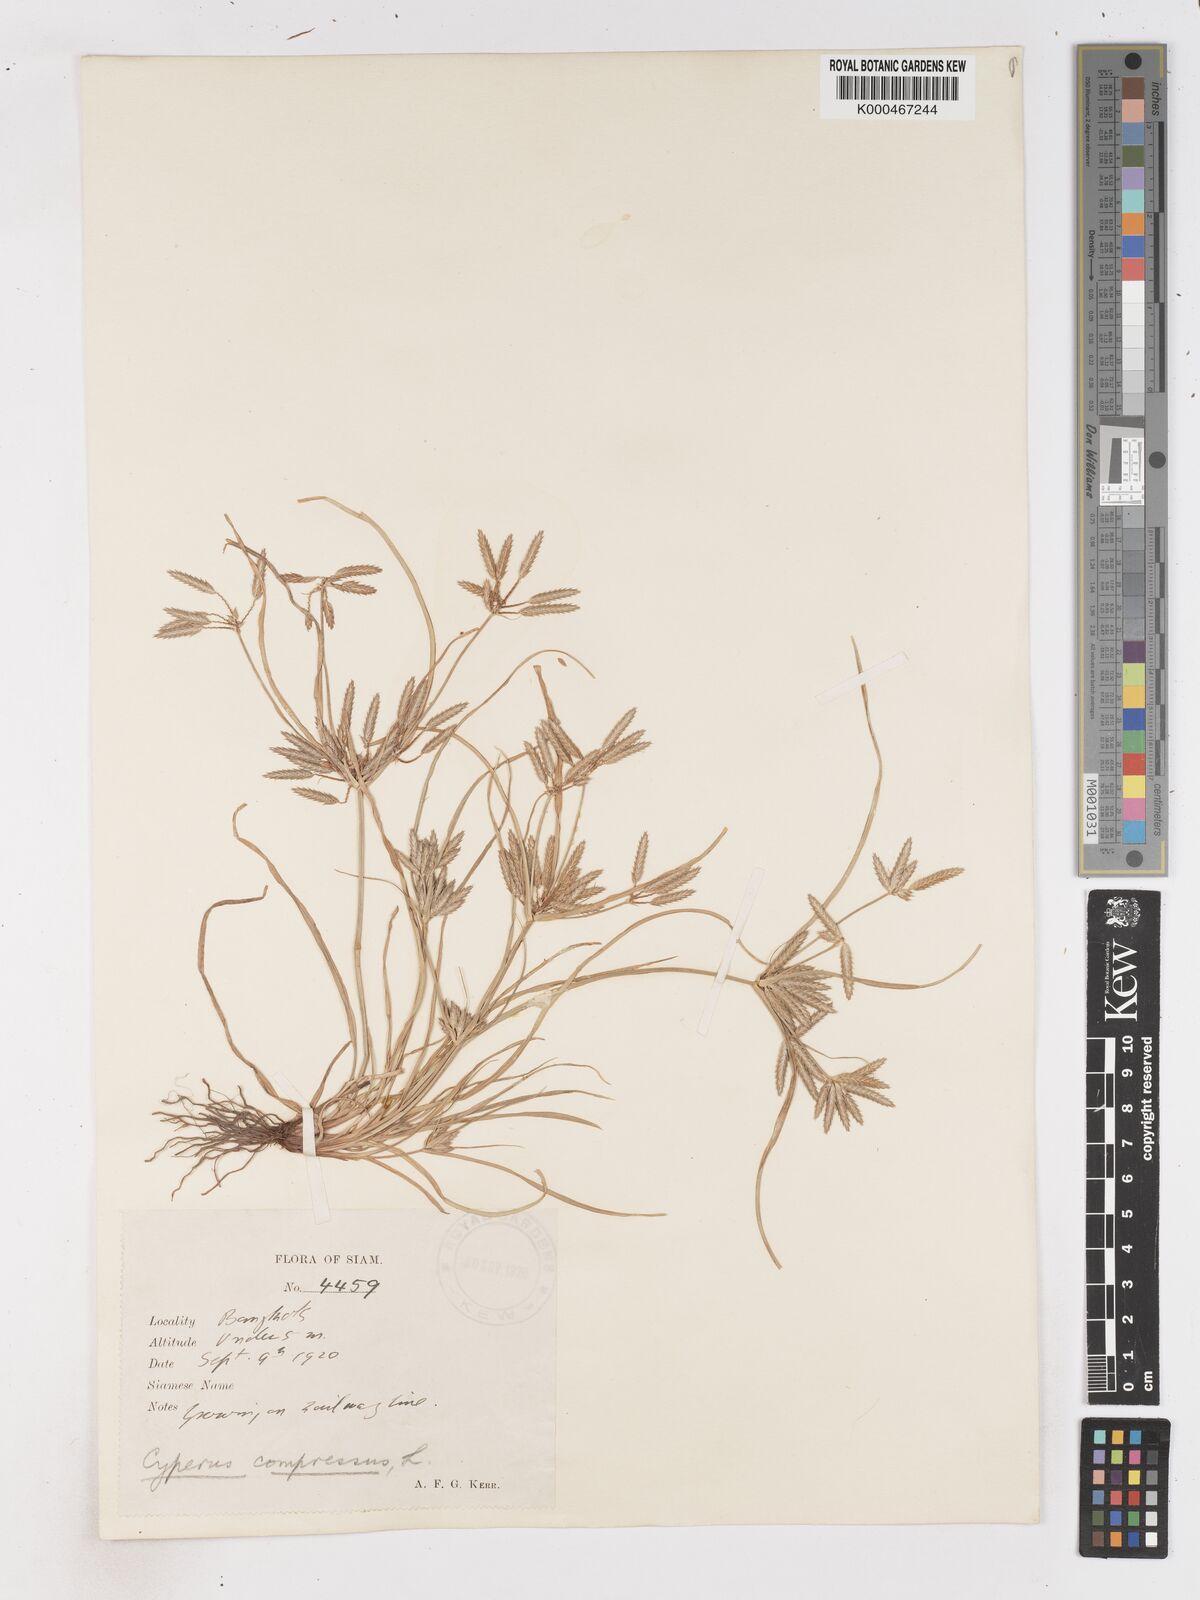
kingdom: Plantae
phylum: Tracheophyta
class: Liliopsida
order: Poales
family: Cyperaceae
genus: Cyperus
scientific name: Cyperus compressus
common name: Poorland flatsedge
